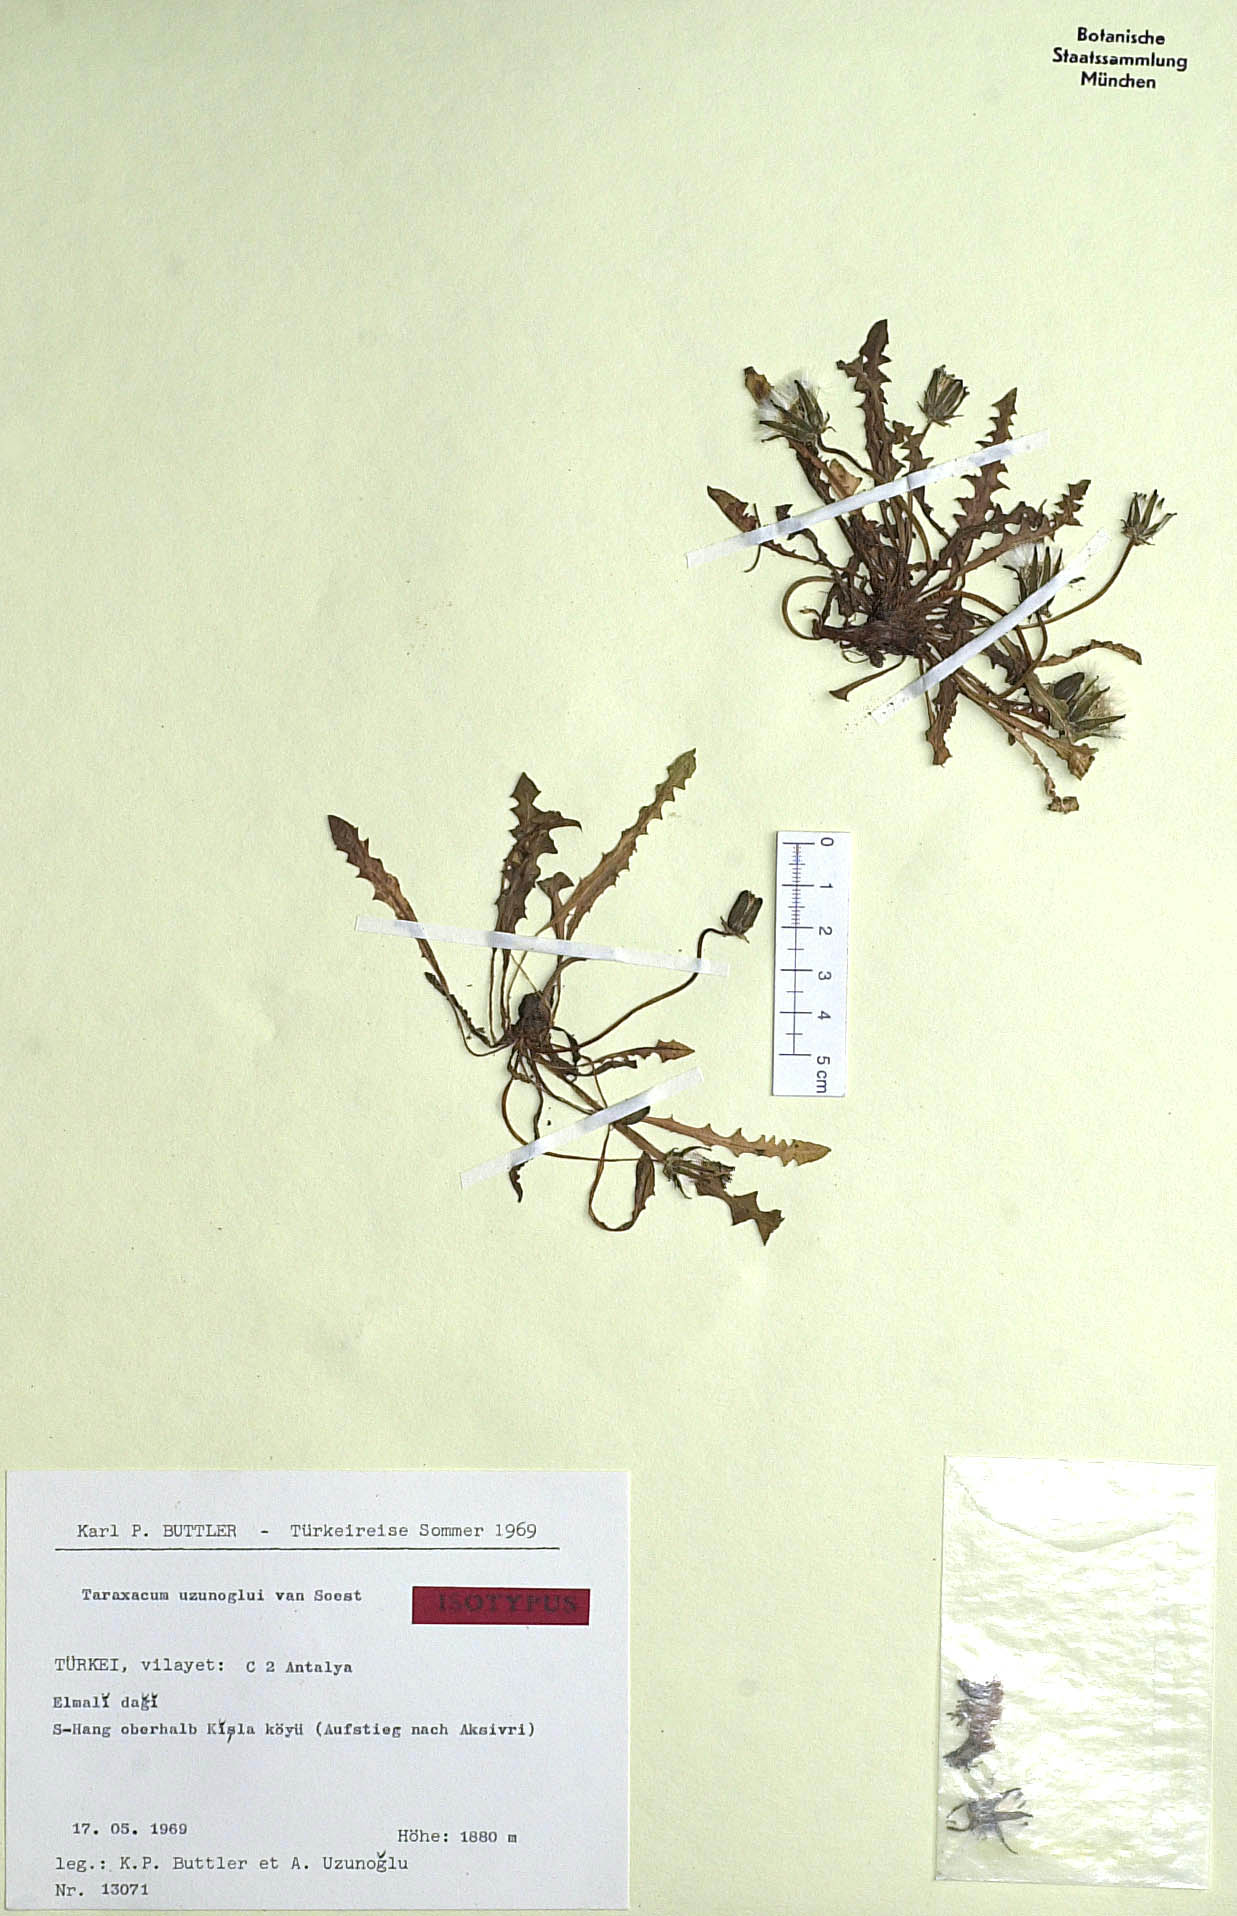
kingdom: Plantae
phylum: Tracheophyta
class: Magnoliopsida
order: Asterales
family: Asteraceae
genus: Taraxacum
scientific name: Taraxacum uzunoglui
